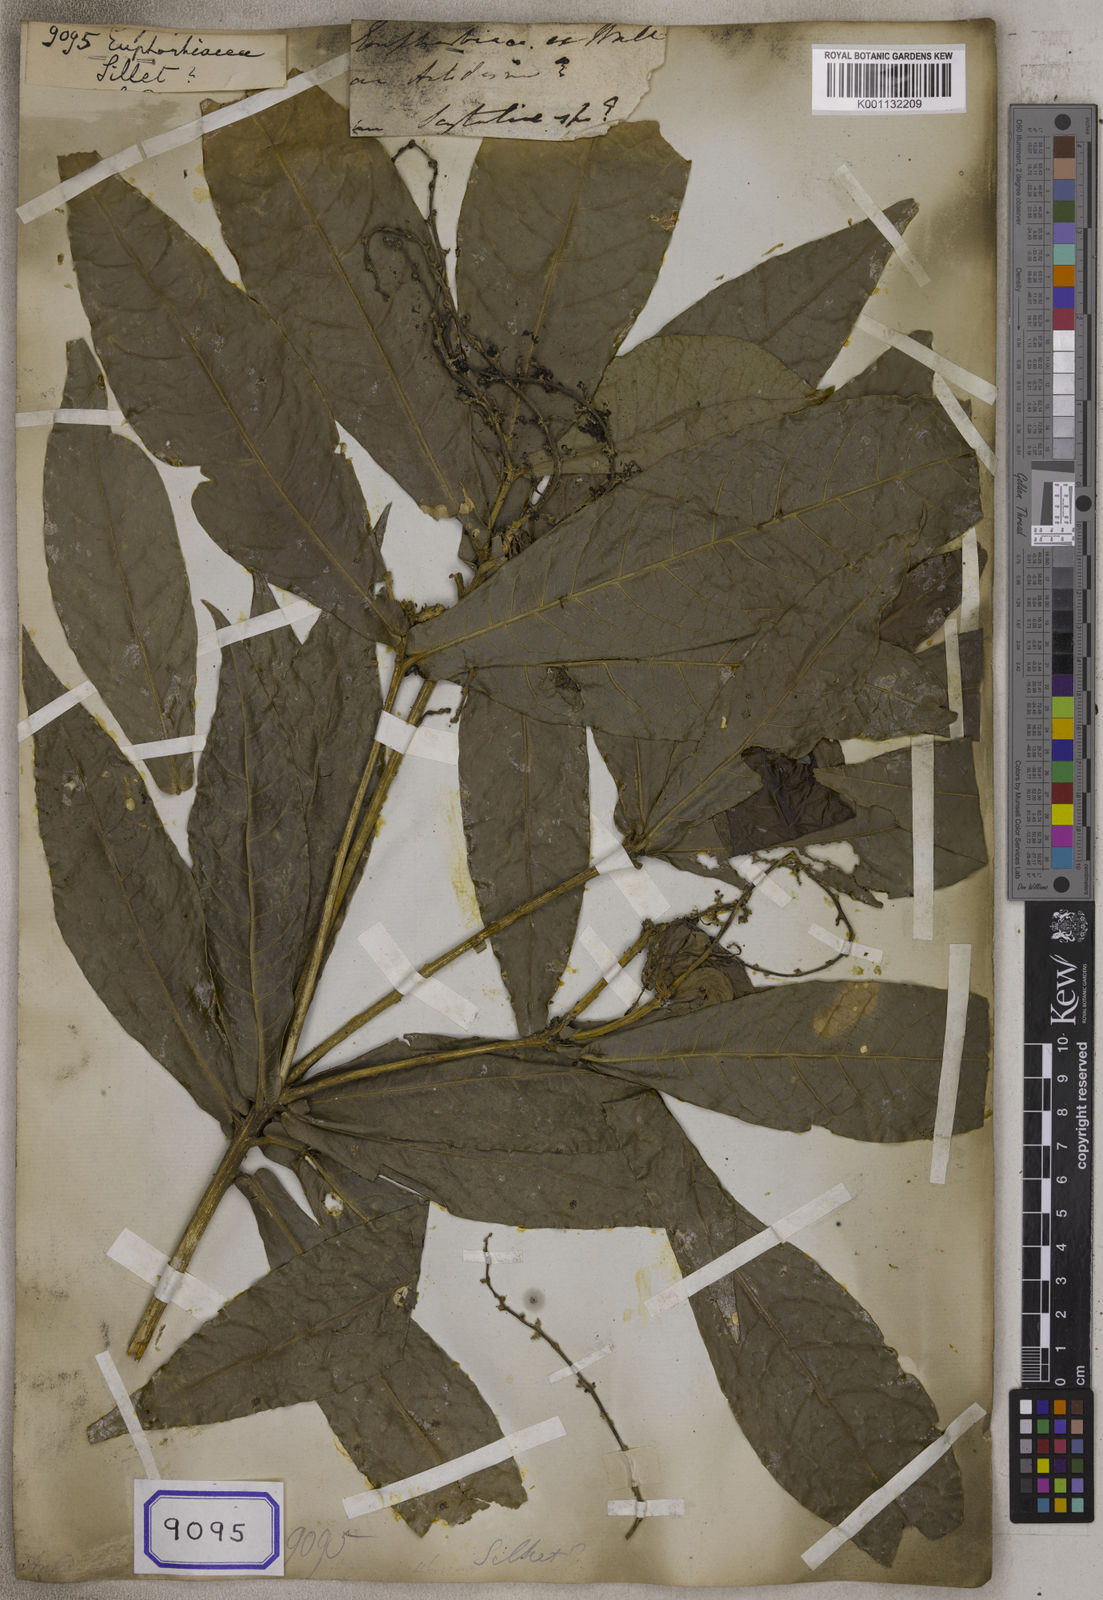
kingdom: Plantae
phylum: Tracheophyta
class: Magnoliopsida
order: Malpighiales
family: Euphorbiaceae
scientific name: Euphorbiaceae
